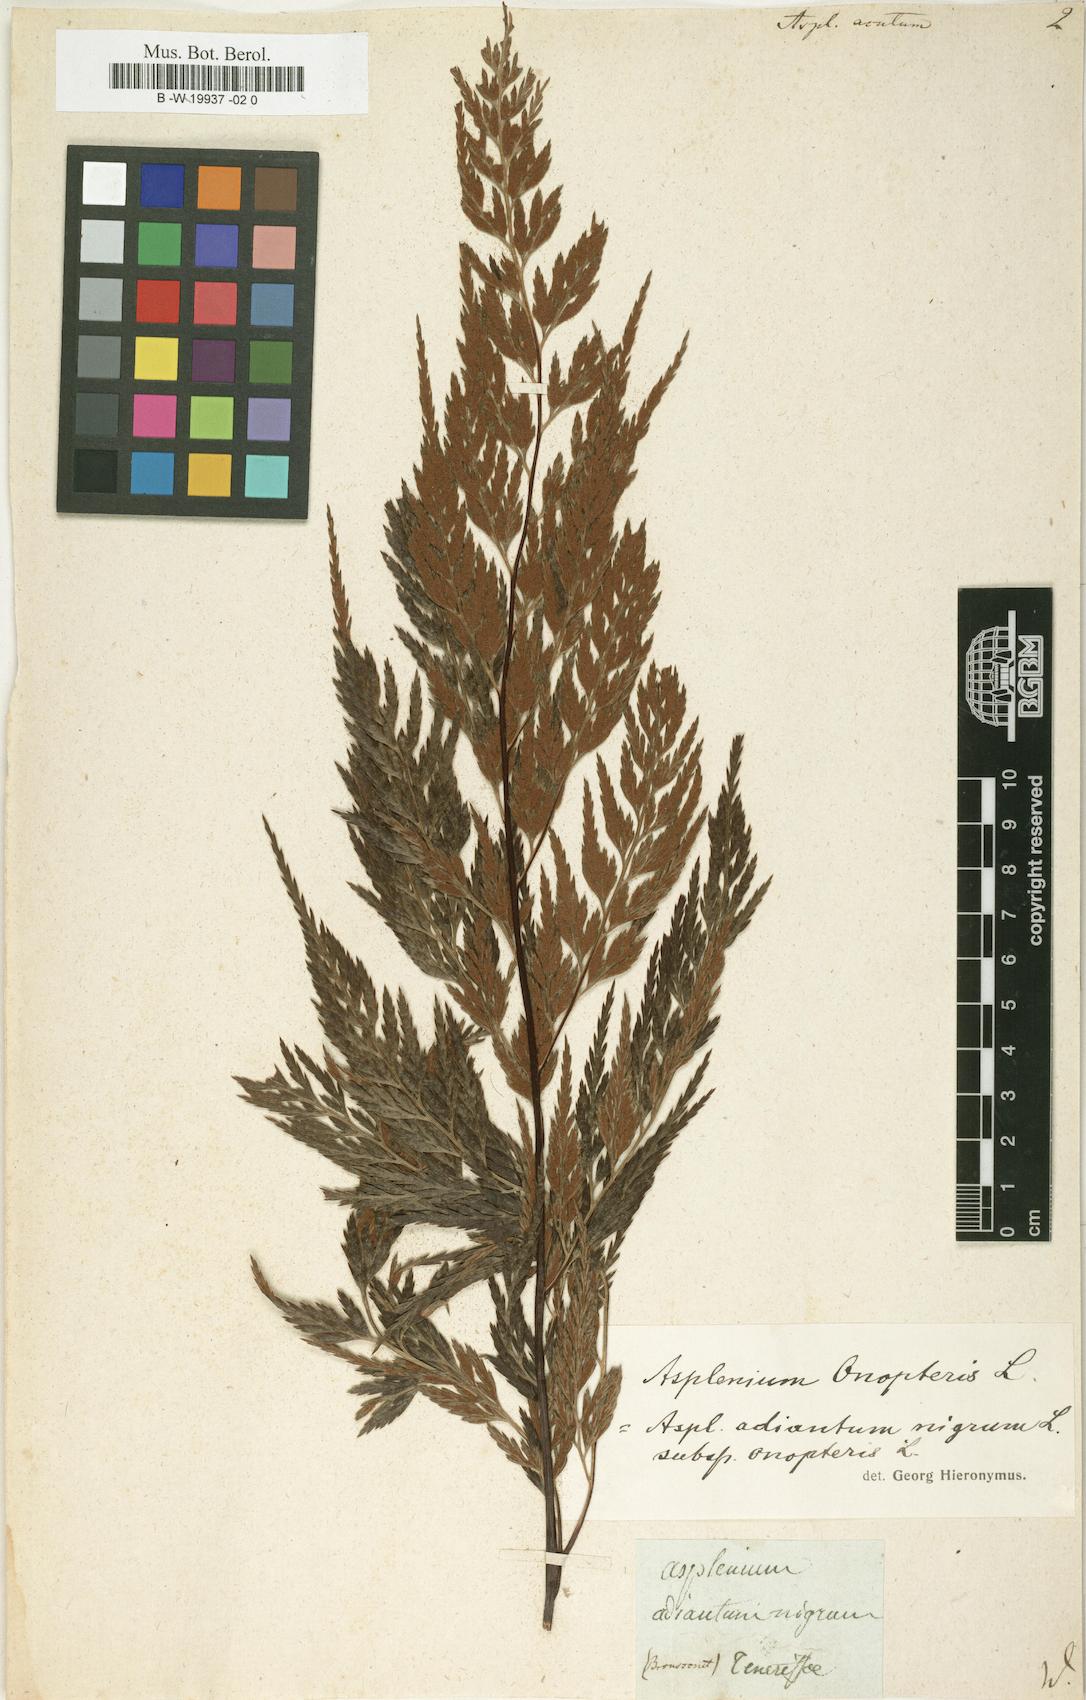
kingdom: Plantae
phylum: Tracheophyta
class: Polypodiopsida
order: Polypodiales
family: Aspleniaceae
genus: Asplenium
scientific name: Asplenium onopteris
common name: Irish spleenwort
